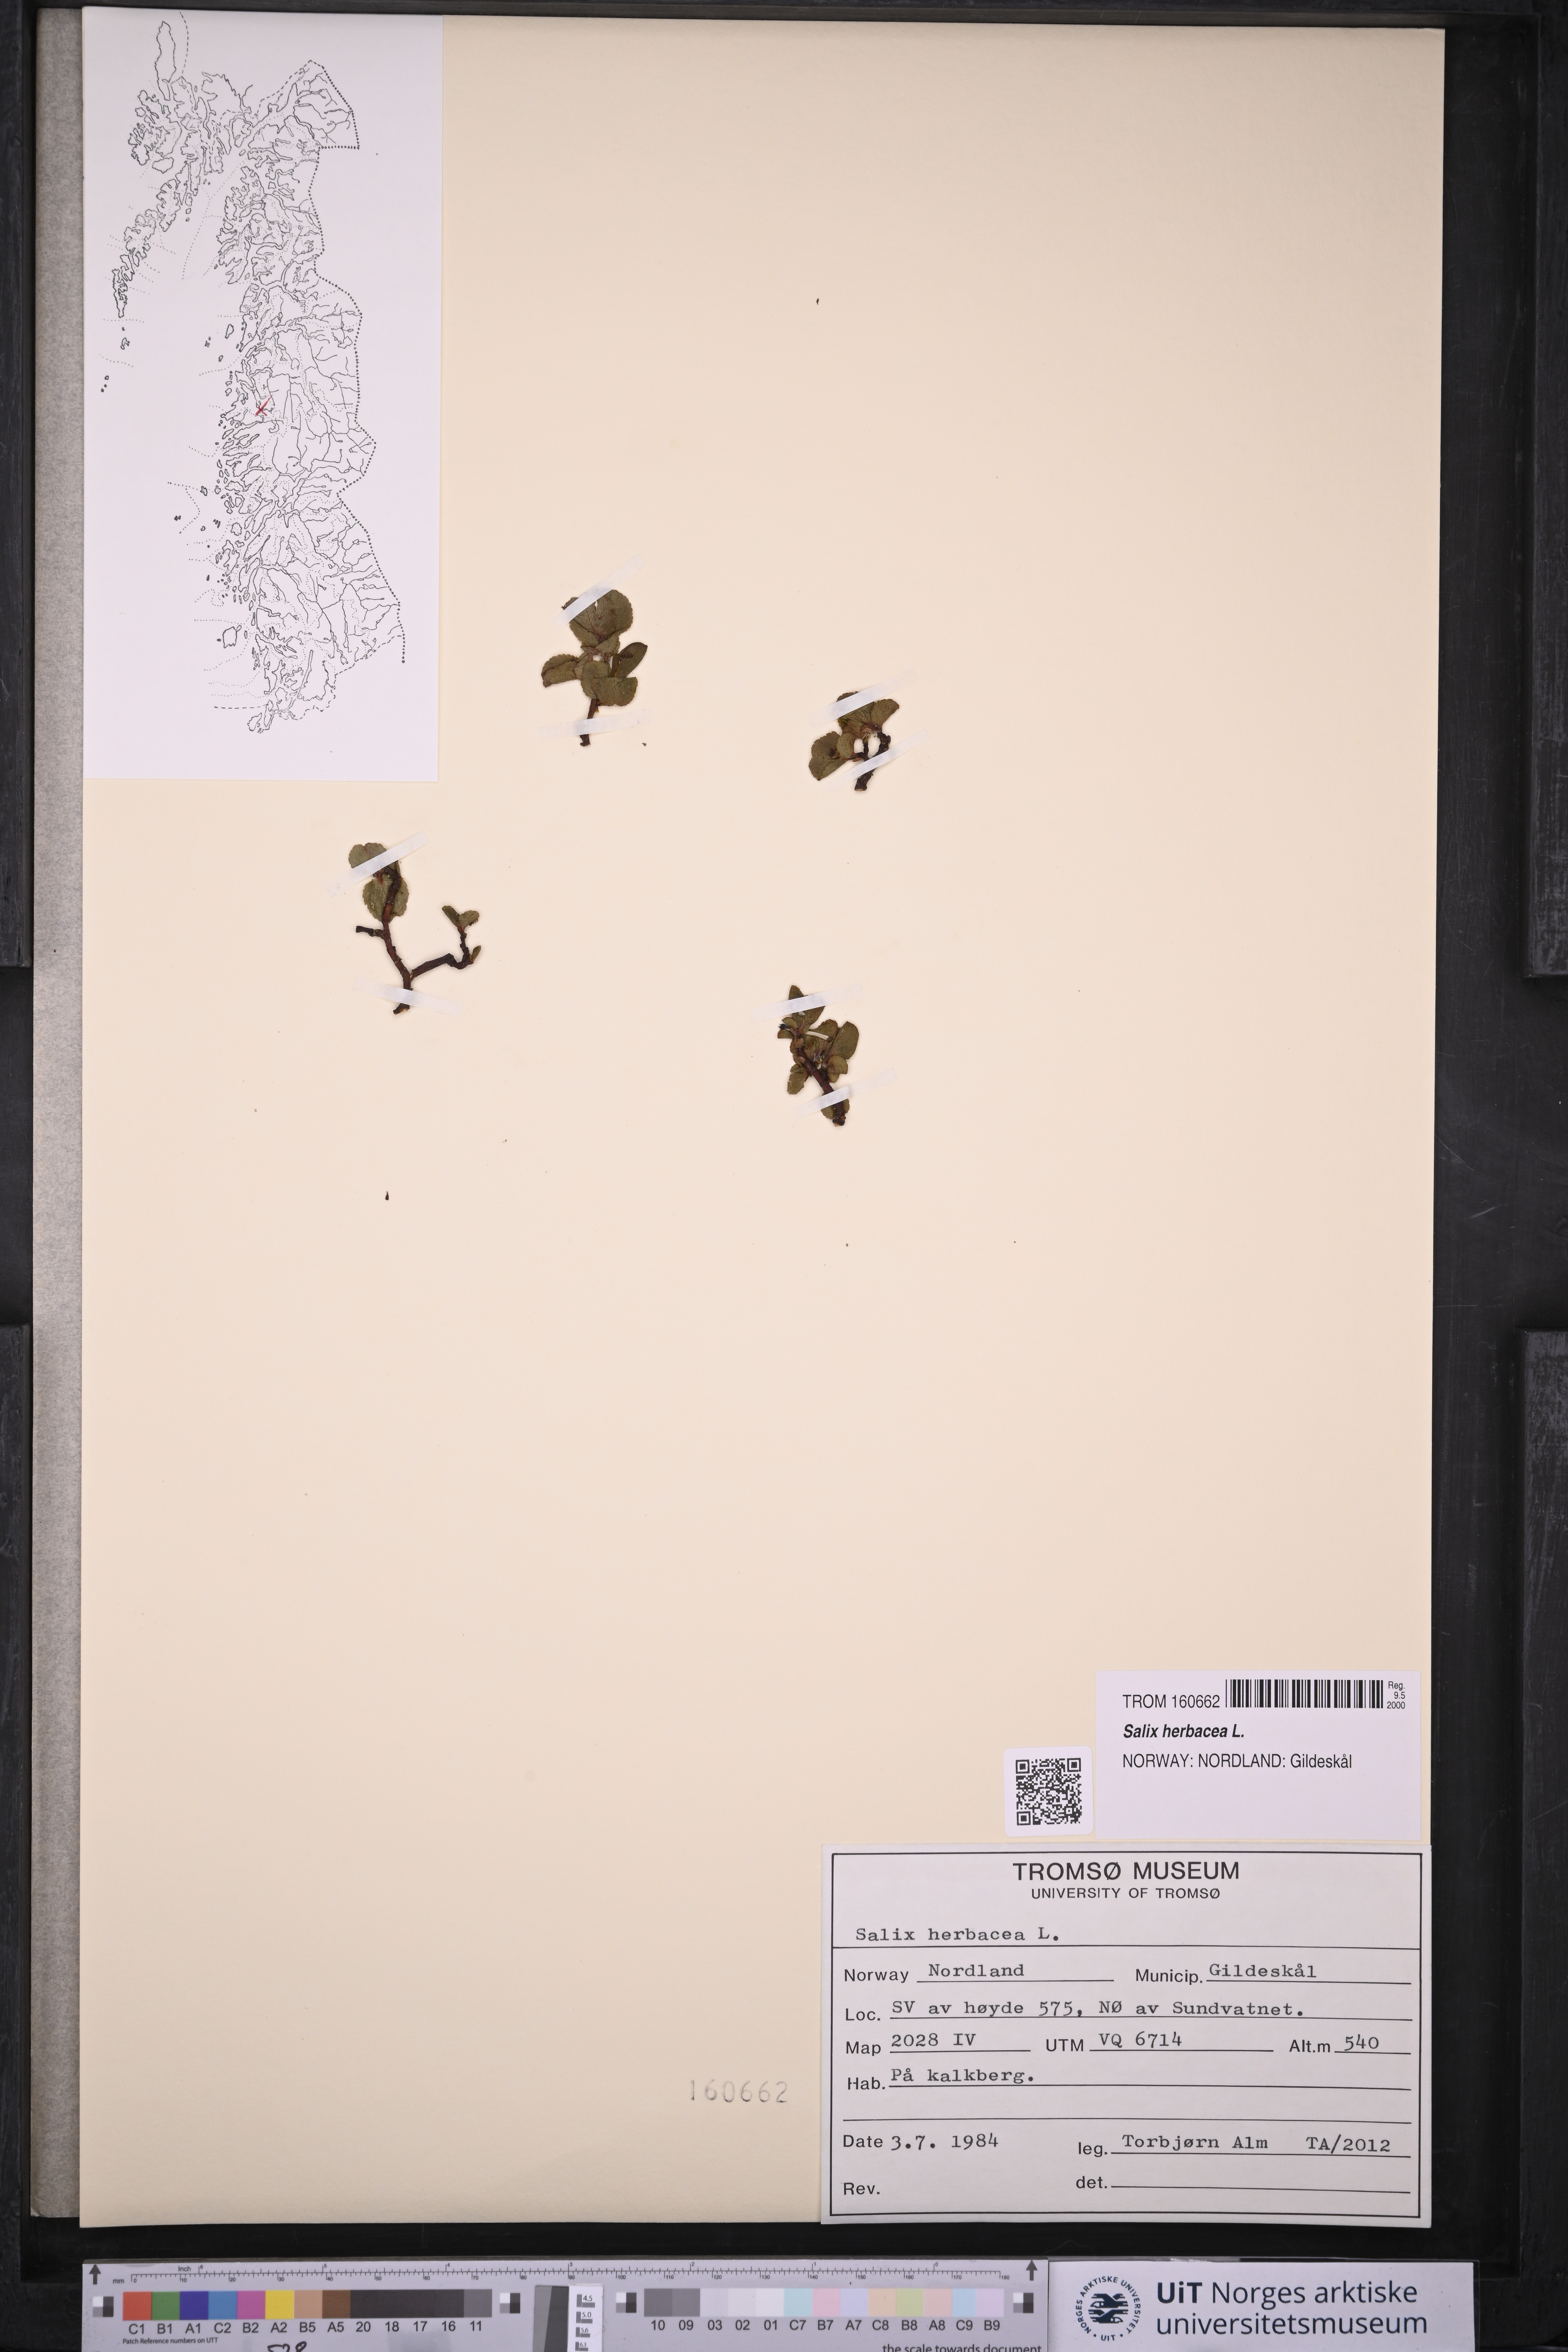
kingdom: Plantae
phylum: Tracheophyta
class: Magnoliopsida
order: Malpighiales
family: Salicaceae
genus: Salix
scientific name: Salix herbacea
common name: Dwarf willow
